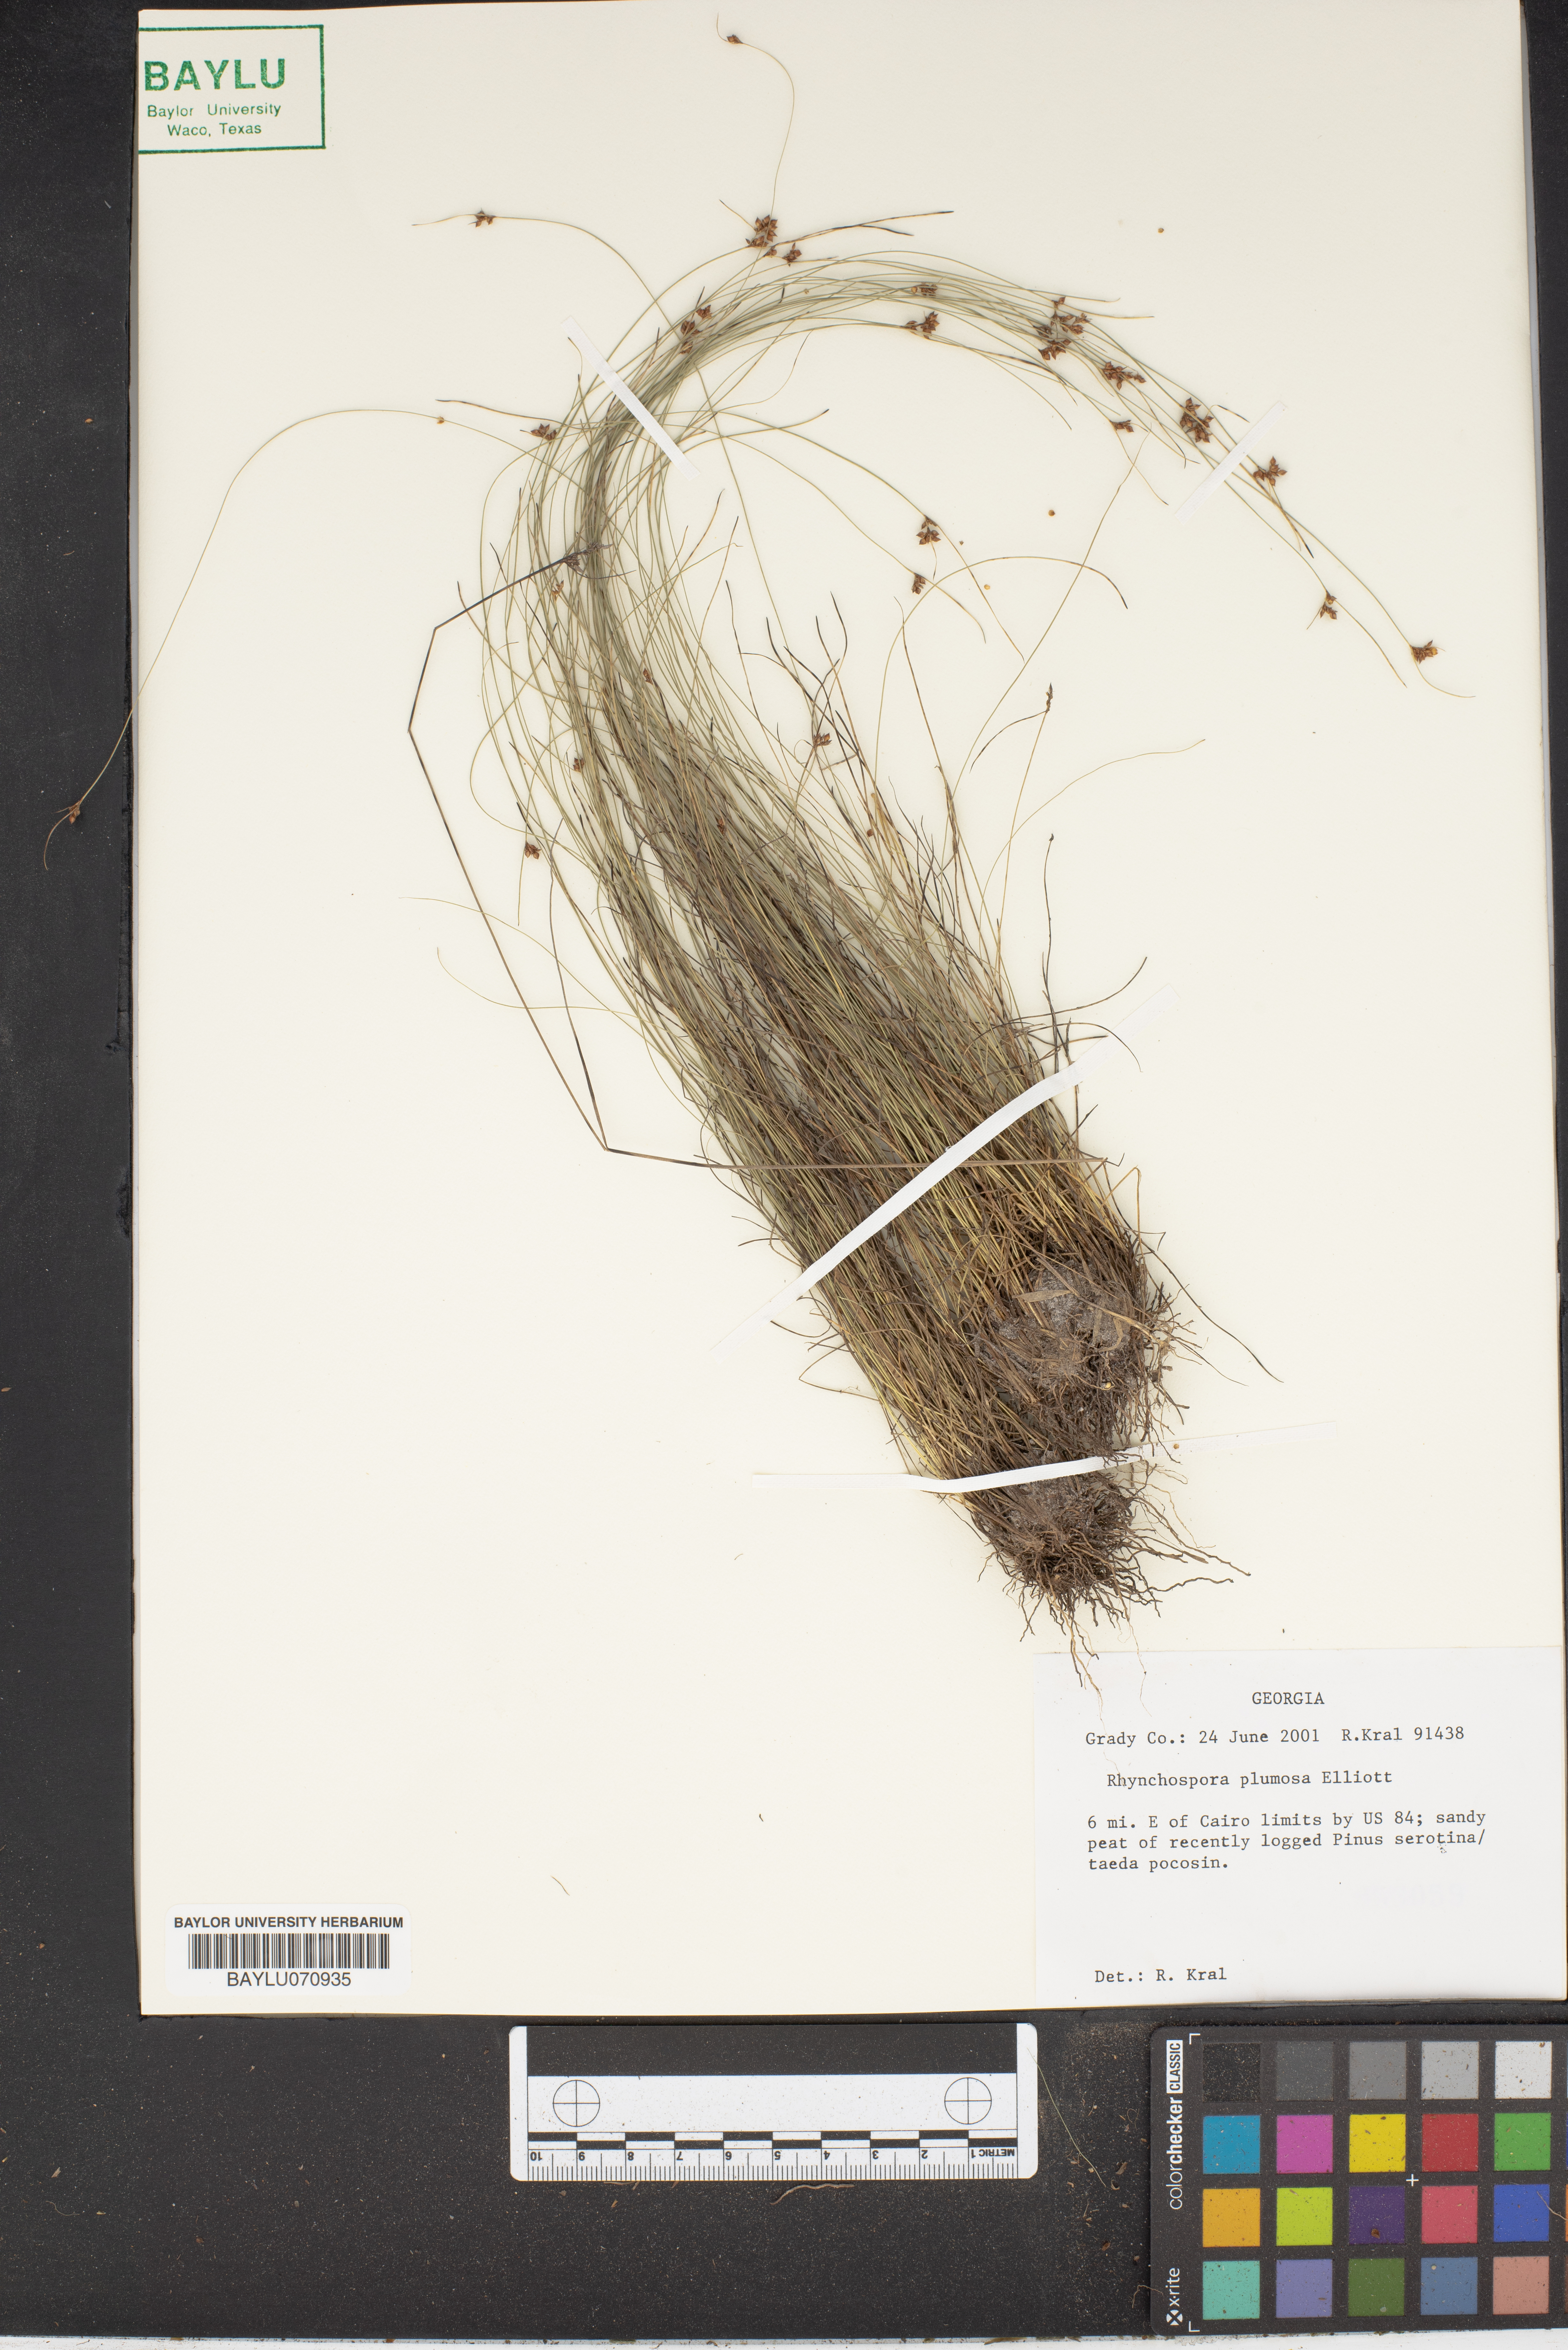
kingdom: Plantae
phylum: Tracheophyta
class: Liliopsida
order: Poales
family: Cyperaceae
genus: Rhynchospora
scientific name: Rhynchospora plumosa
